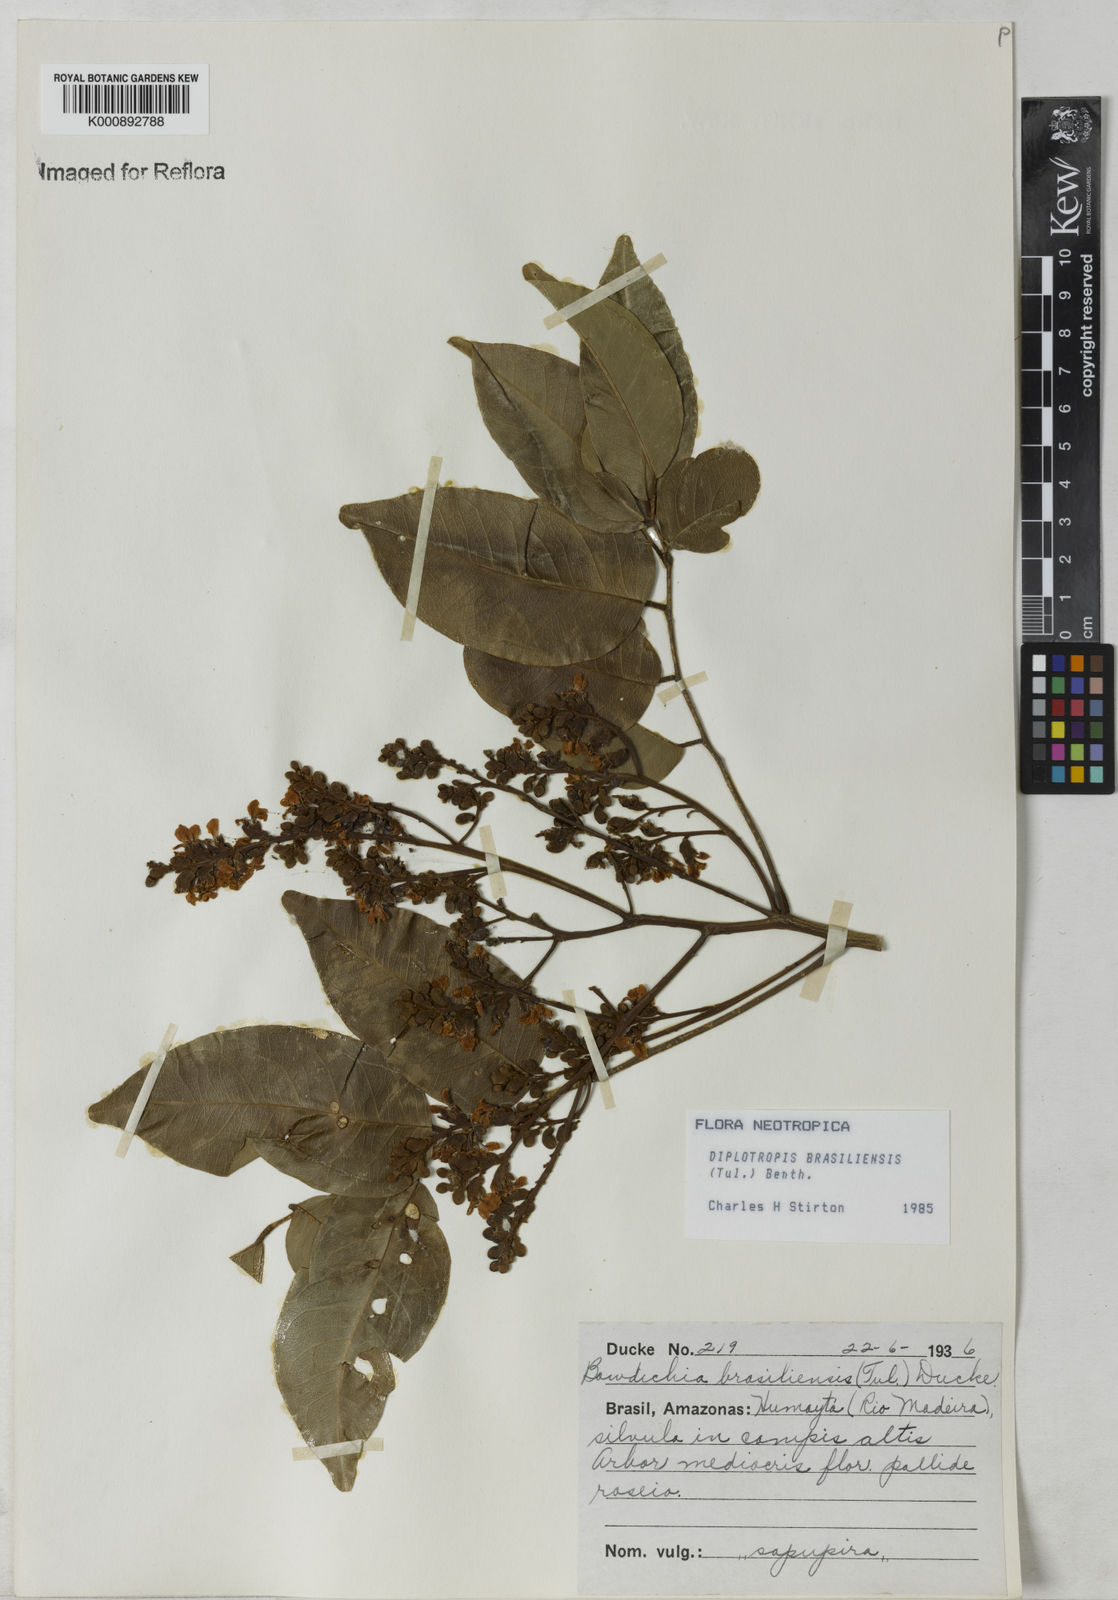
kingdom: Plantae
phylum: Tracheophyta
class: Magnoliopsida
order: Fabales
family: Fabaceae
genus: Diplotropis
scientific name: Diplotropis brasiliensis
